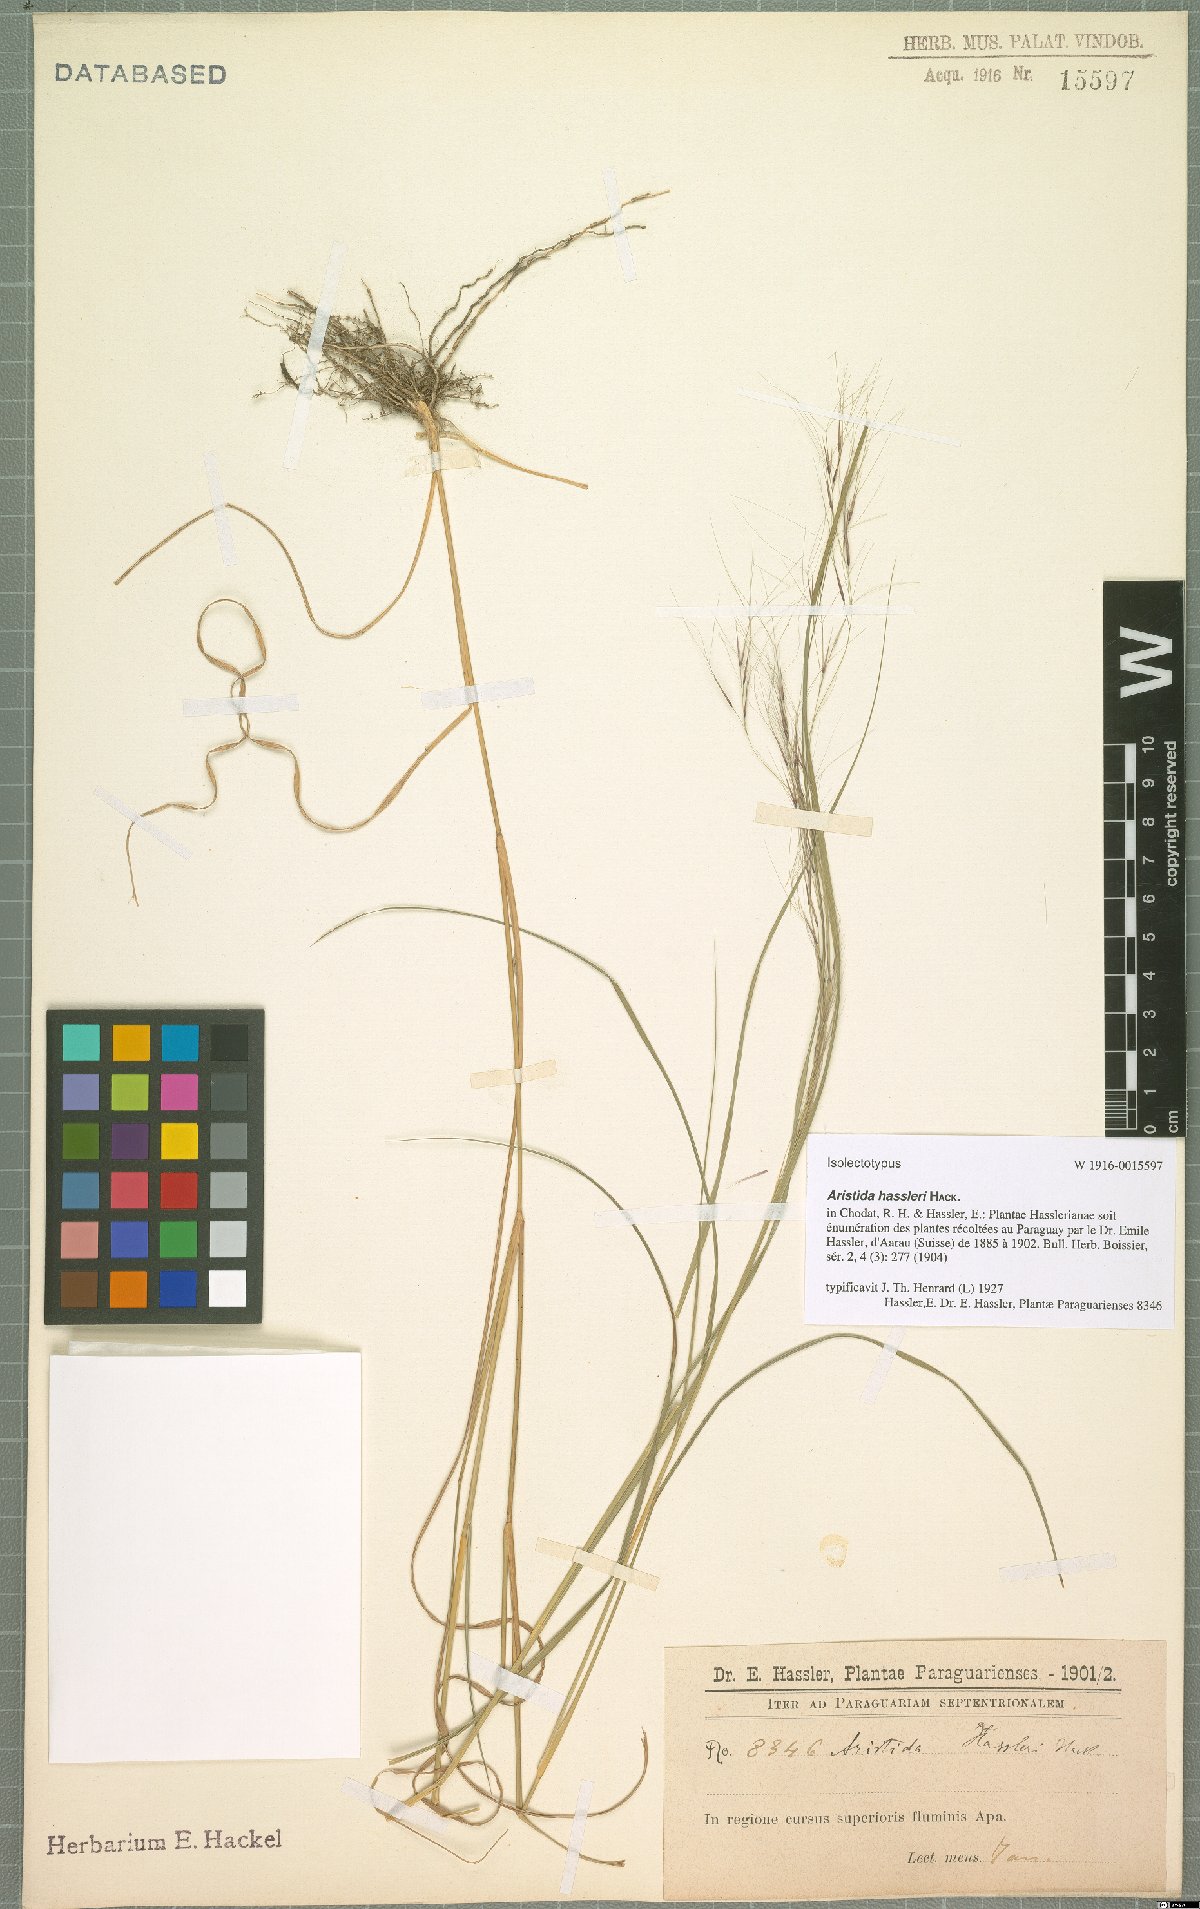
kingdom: Plantae
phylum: Tracheophyta
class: Liliopsida
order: Poales
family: Poaceae
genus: Aristida
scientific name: Aristida hassleri
